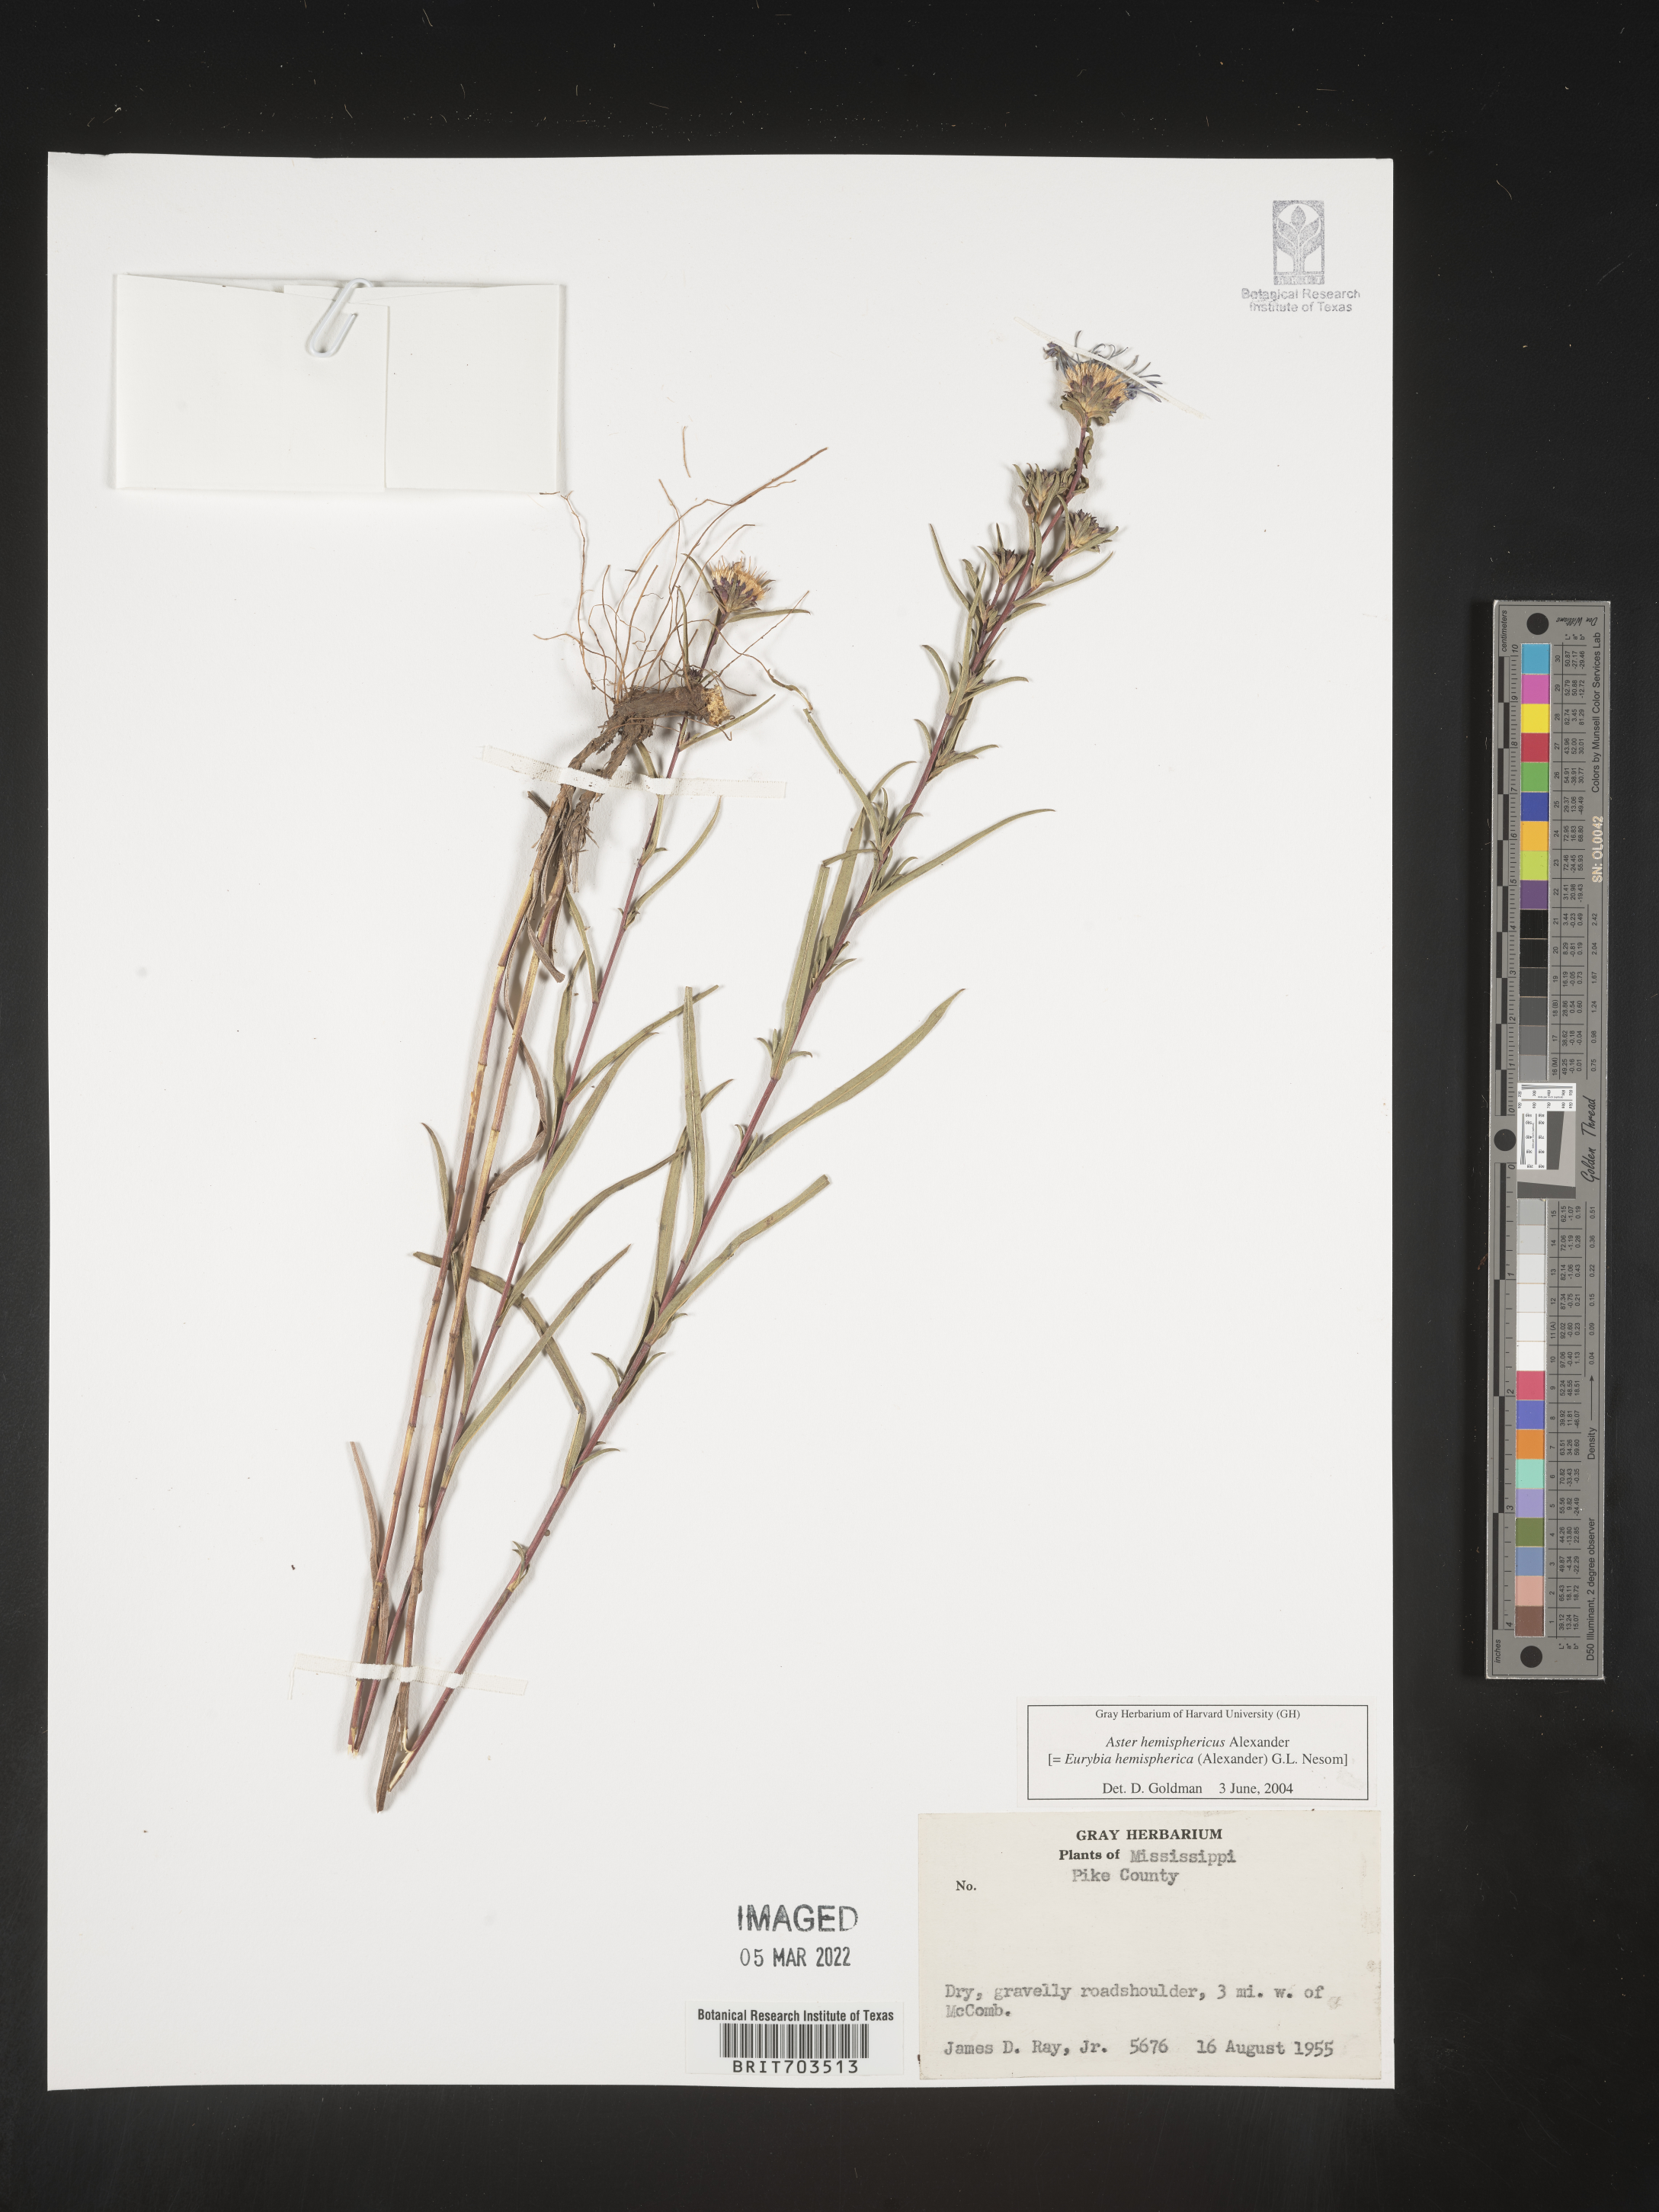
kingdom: Plantae
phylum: Tracheophyta
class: Magnoliopsida
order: Asterales
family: Asteraceae
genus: Eurybia
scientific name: Eurybia hemispherica
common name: Showy aster
